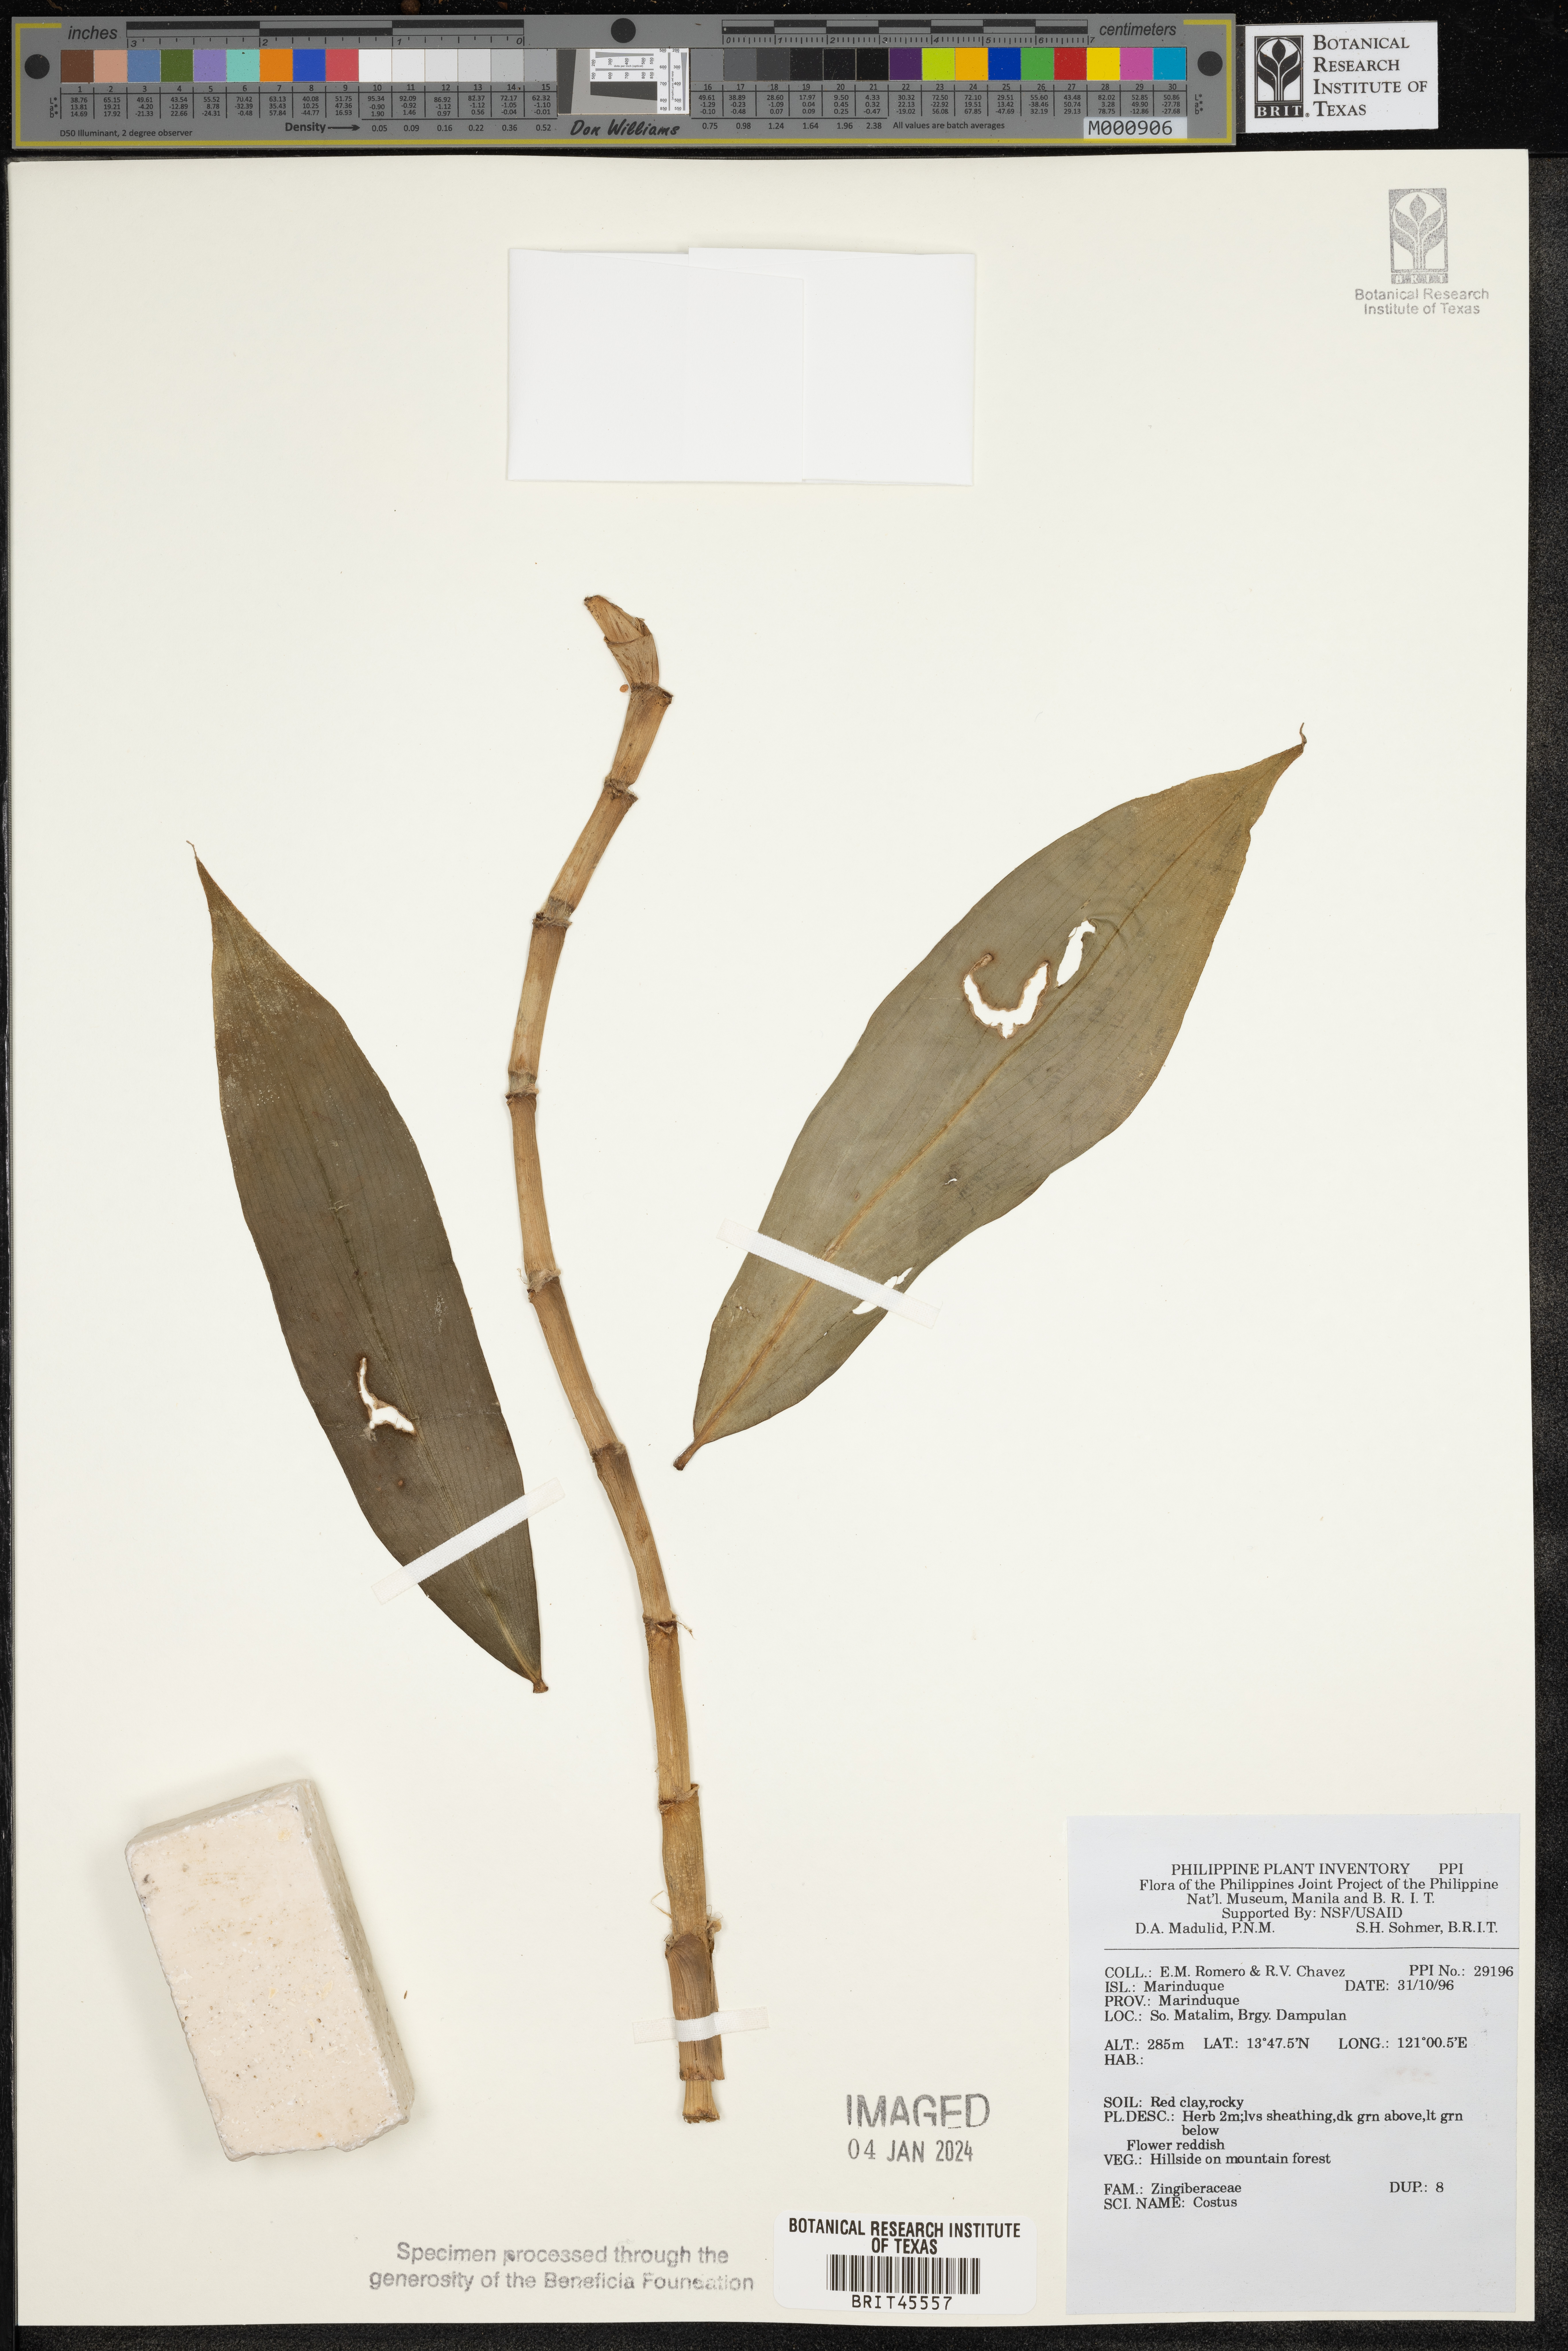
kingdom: Plantae
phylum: Tracheophyta
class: Liliopsida
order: Zingiberales
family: Costaceae
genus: Costus
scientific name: Costus
